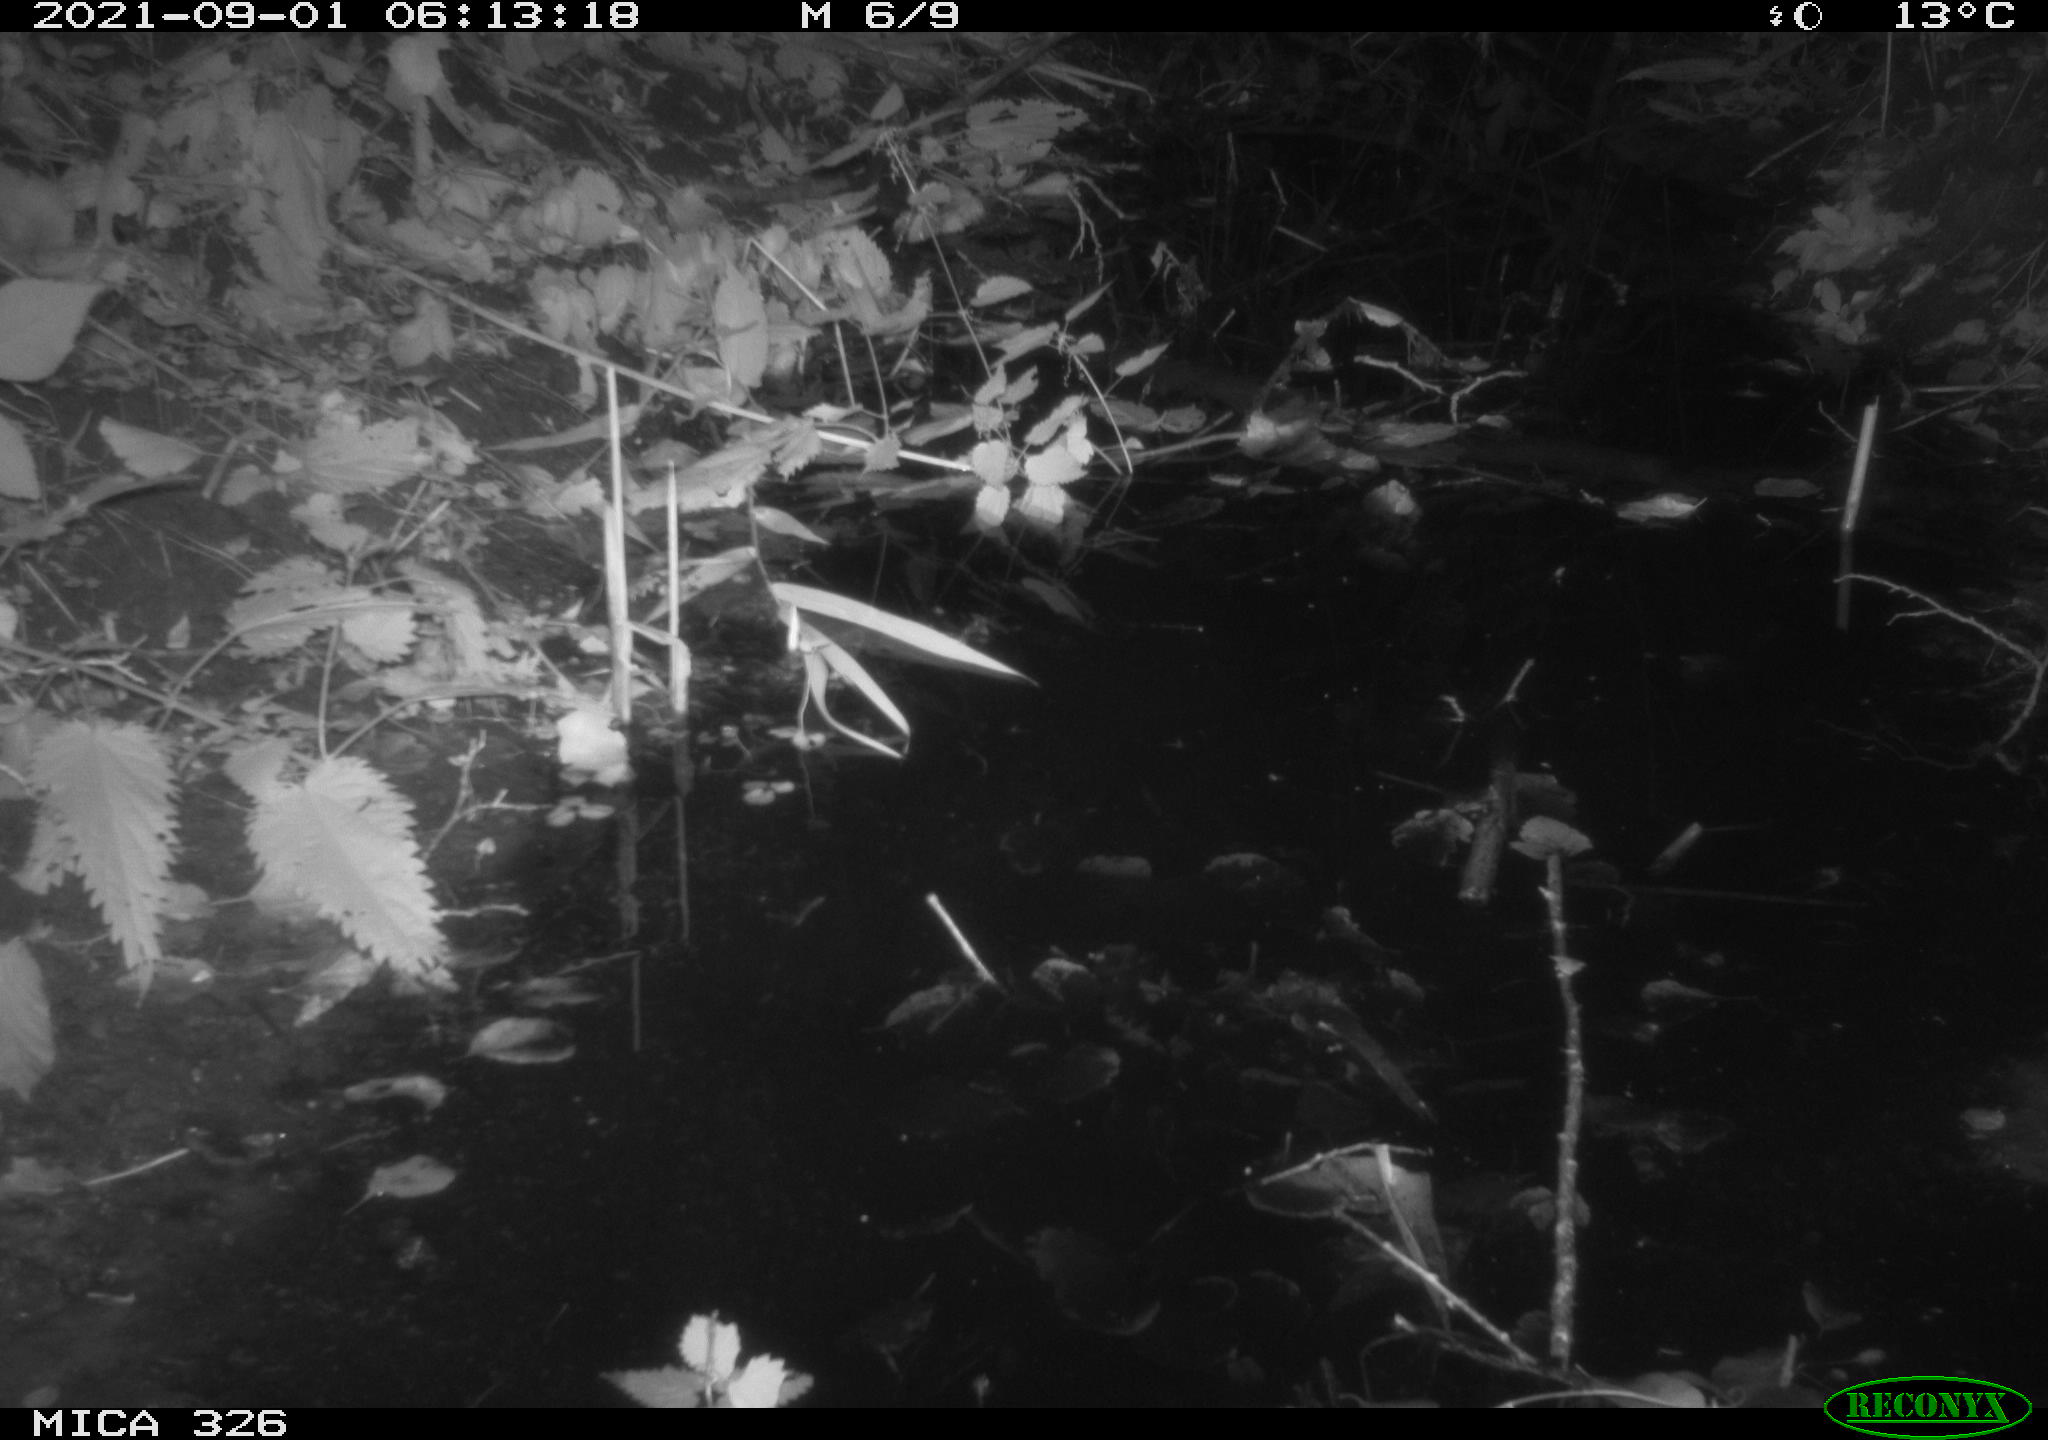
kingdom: Animalia
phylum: Chordata
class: Mammalia
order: Rodentia
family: Muridae
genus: Rattus
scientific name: Rattus norvegicus
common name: Brown rat
